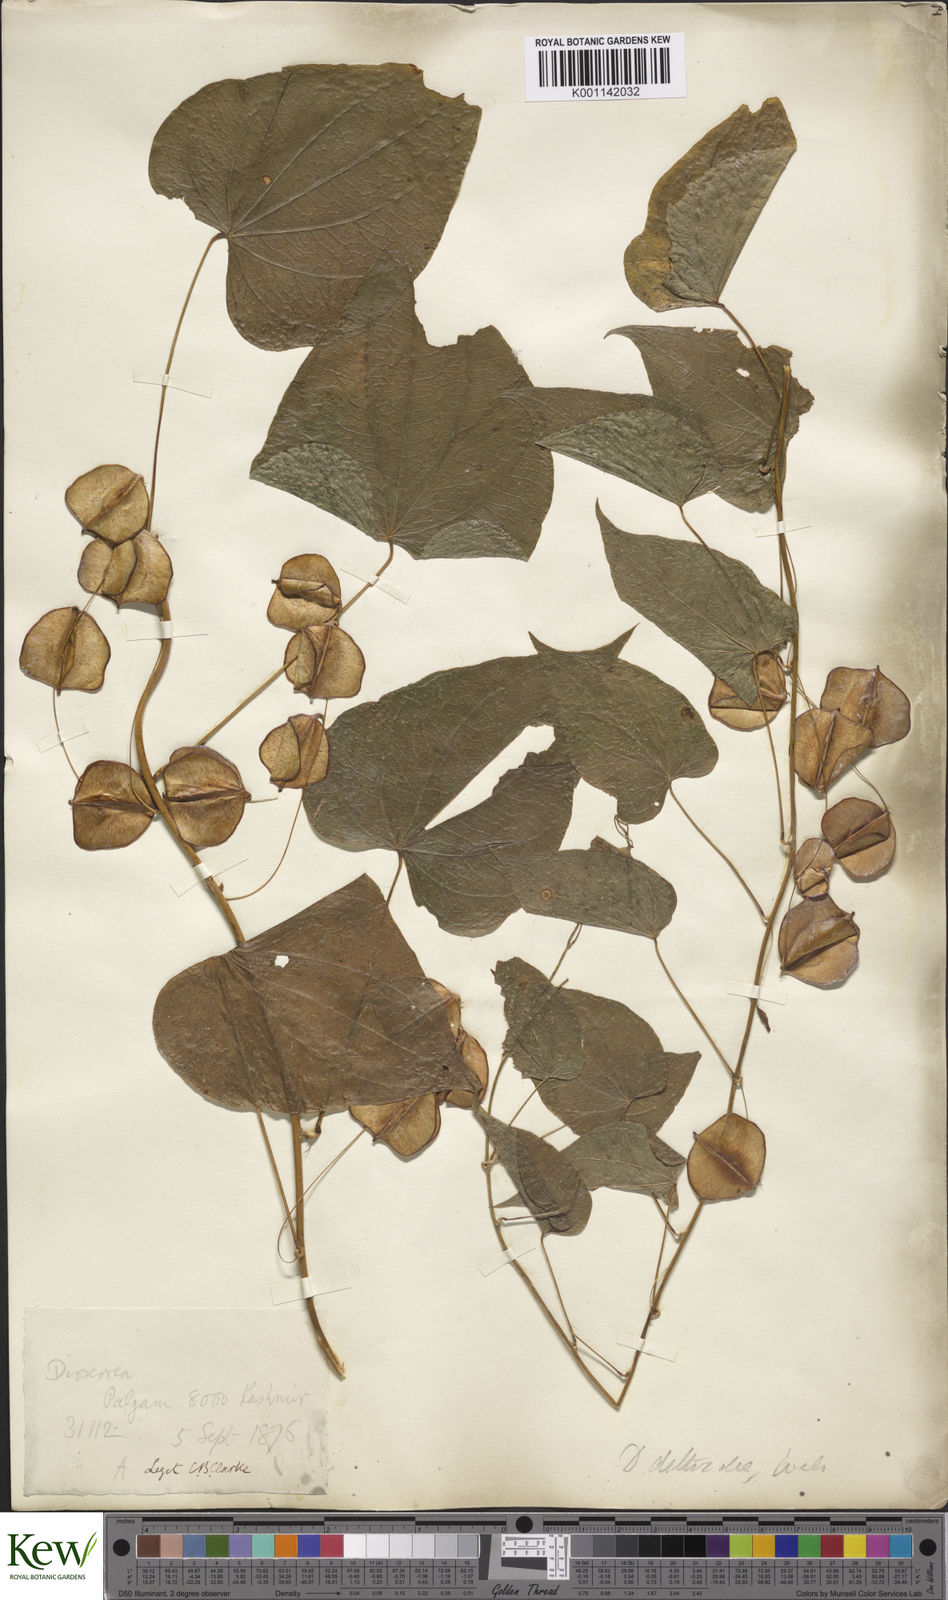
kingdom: Plantae
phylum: Tracheophyta
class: Liliopsida
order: Dioscoreales
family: Dioscoreaceae
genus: Dioscorea
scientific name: Dioscorea deltoidea
